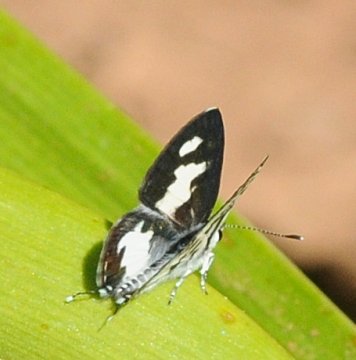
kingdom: Animalia
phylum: Arthropoda
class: Insecta
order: Lepidoptera
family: Lycaenidae
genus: Castalius
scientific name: Castalius calice
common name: White Pie
